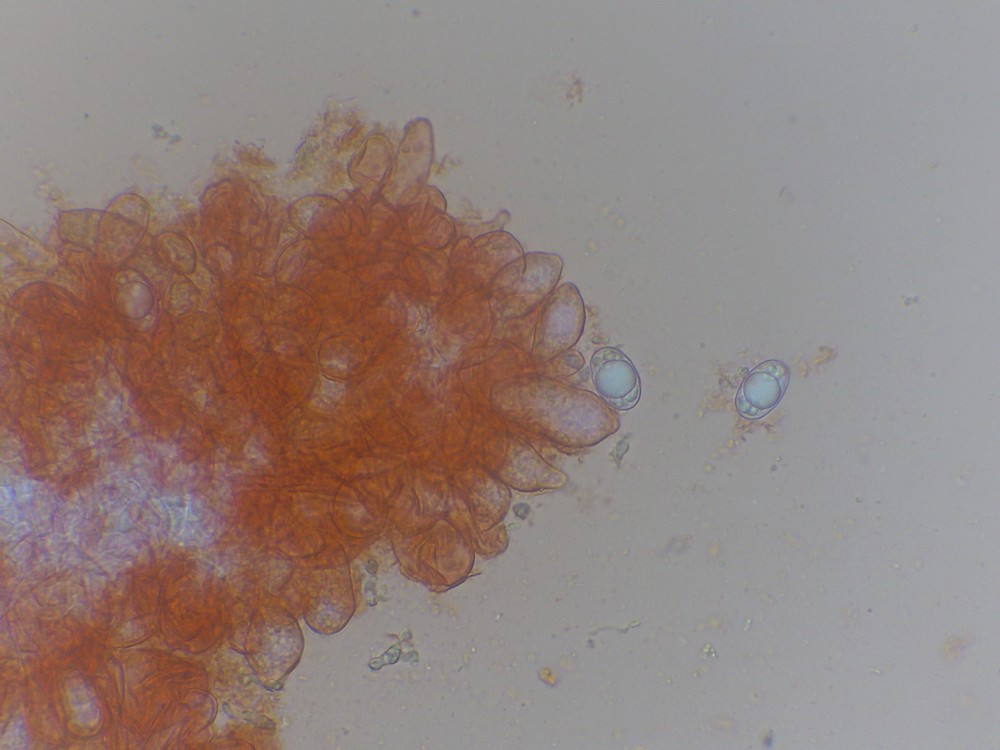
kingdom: Fungi
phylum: Ascomycota
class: Pezizomycetes
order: Pezizales
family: Helvellaceae
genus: Helvella
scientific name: Helvella elastica
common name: elastik-foldhat
